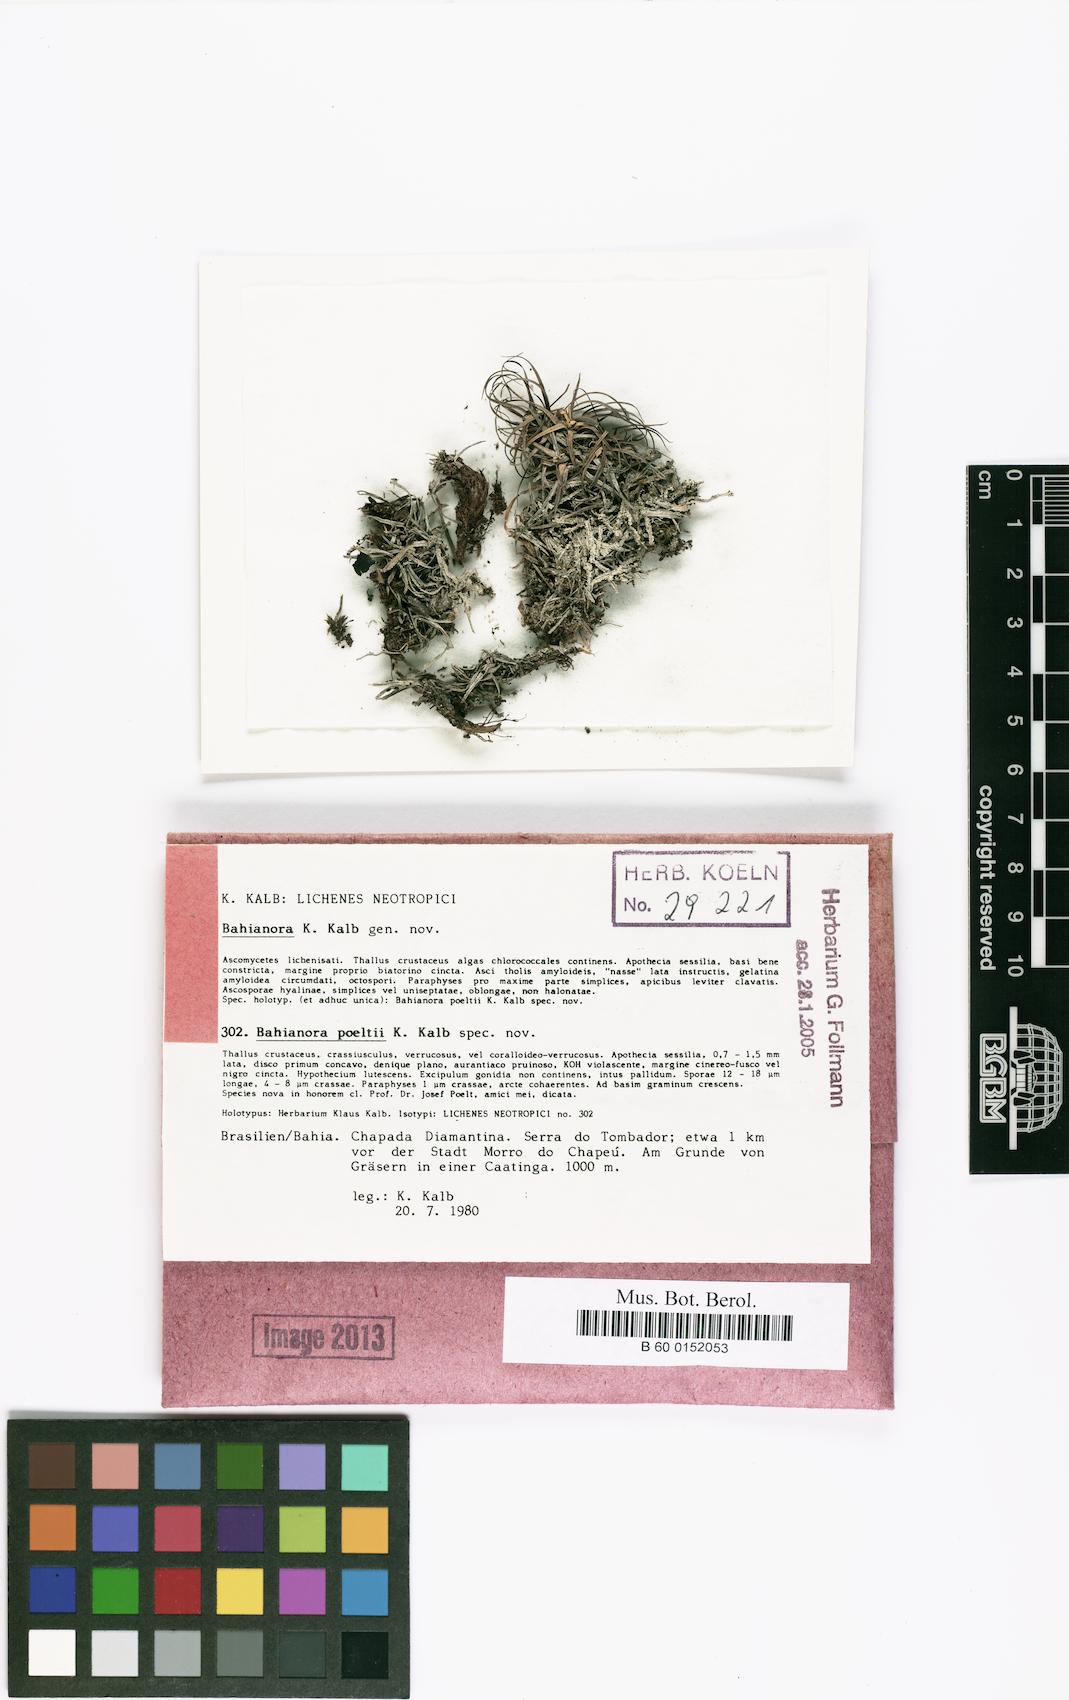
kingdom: Fungi
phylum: Ascomycota
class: Lecanoromycetes
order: Lecideales
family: Lecideaceae
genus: Bahianora
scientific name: Bahianora poeltii
